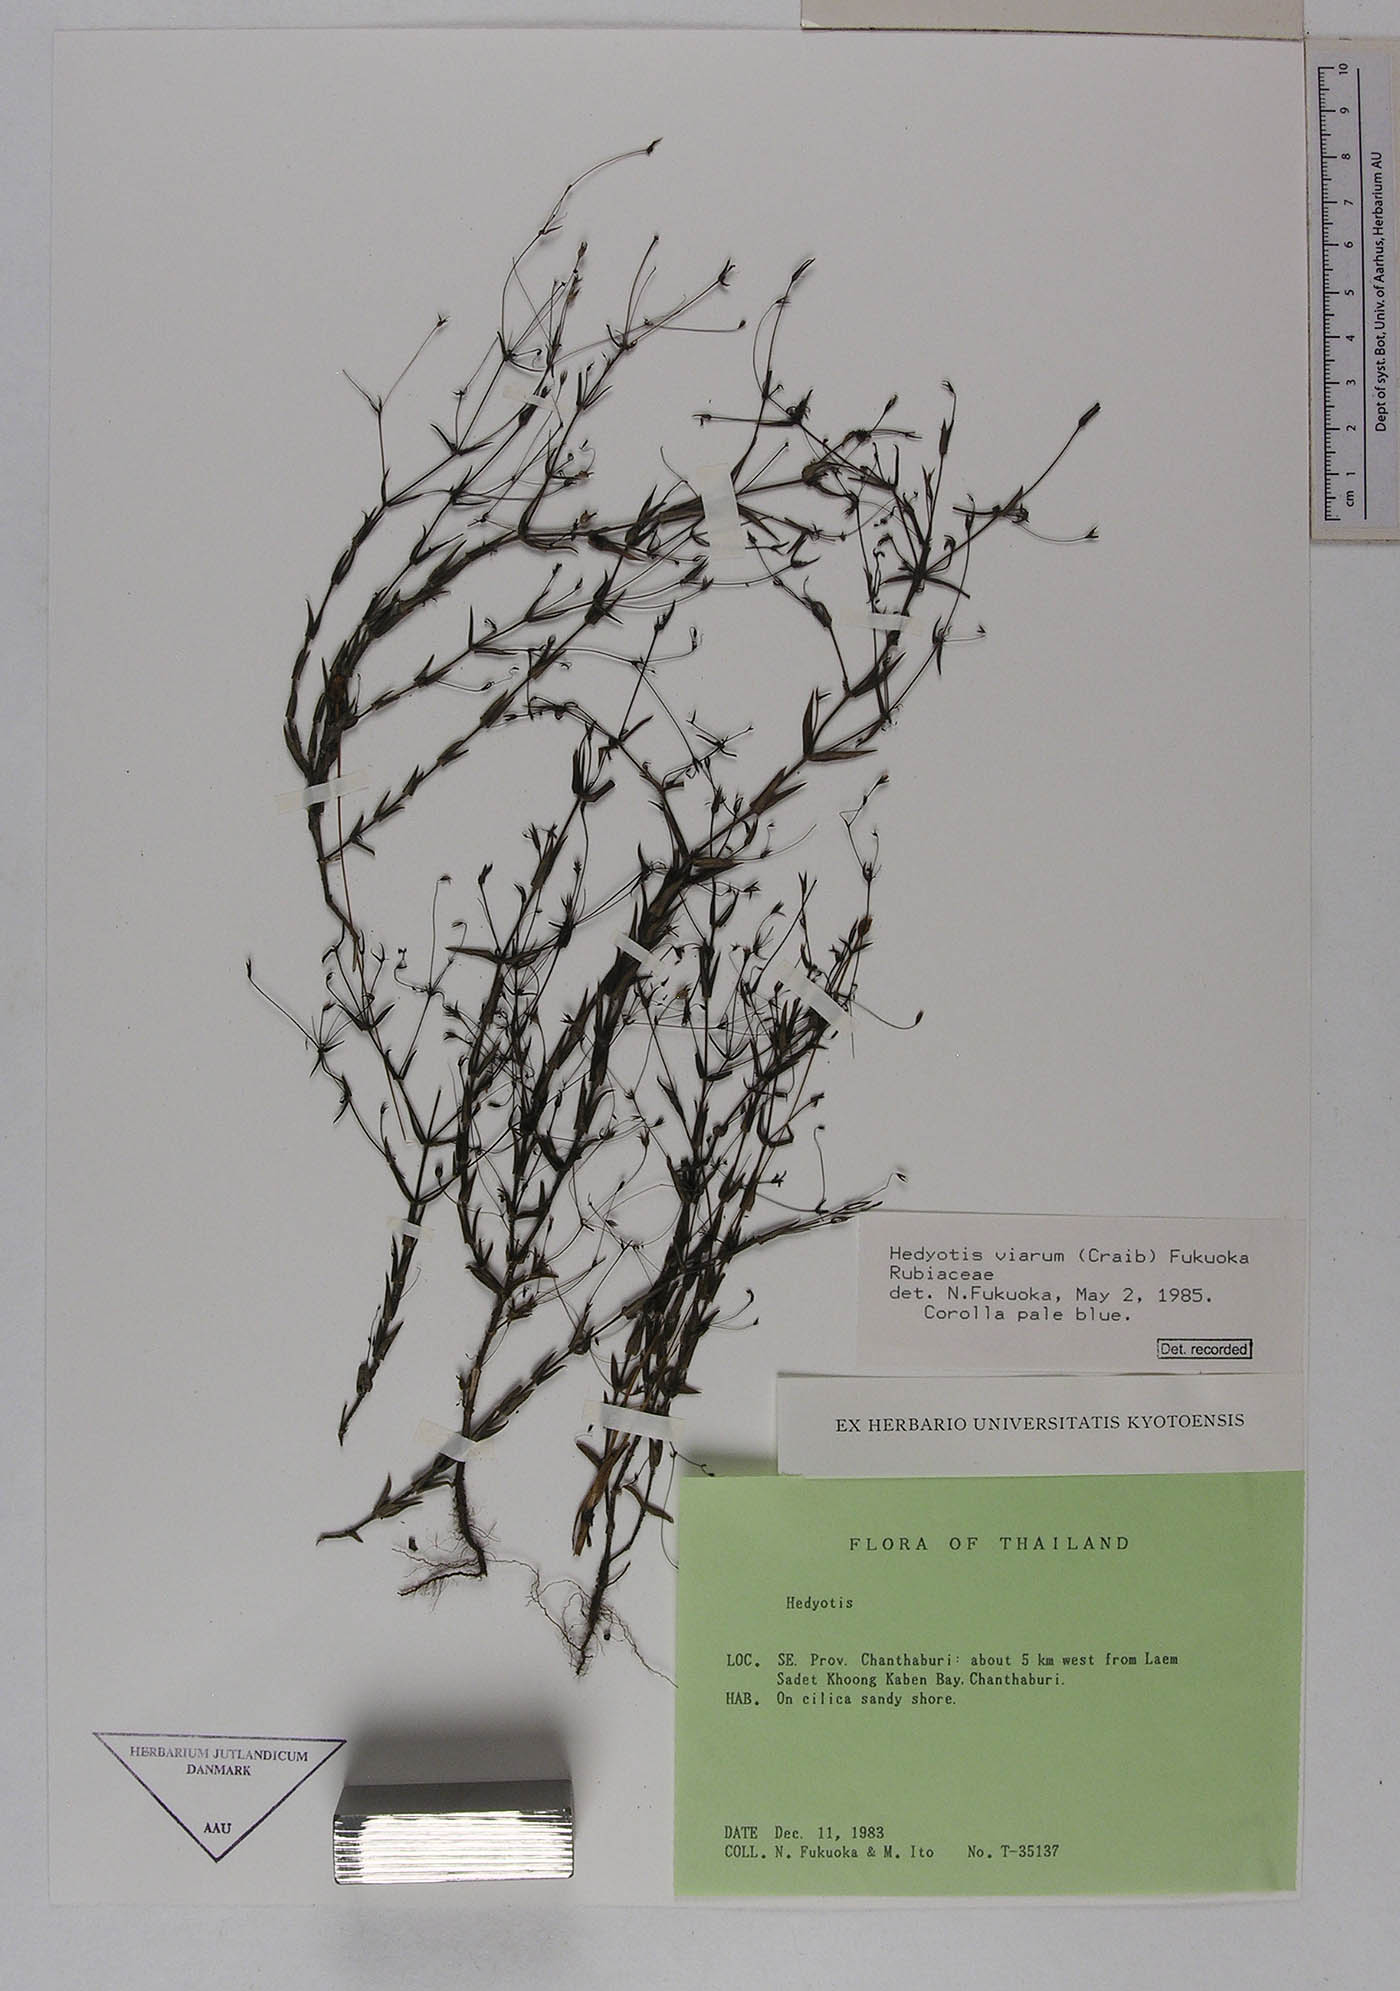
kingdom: Plantae
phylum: Tracheophyta
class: Magnoliopsida
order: Gentianales
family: Rubiaceae
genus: Oldenlandia
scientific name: Oldenlandia affinis
